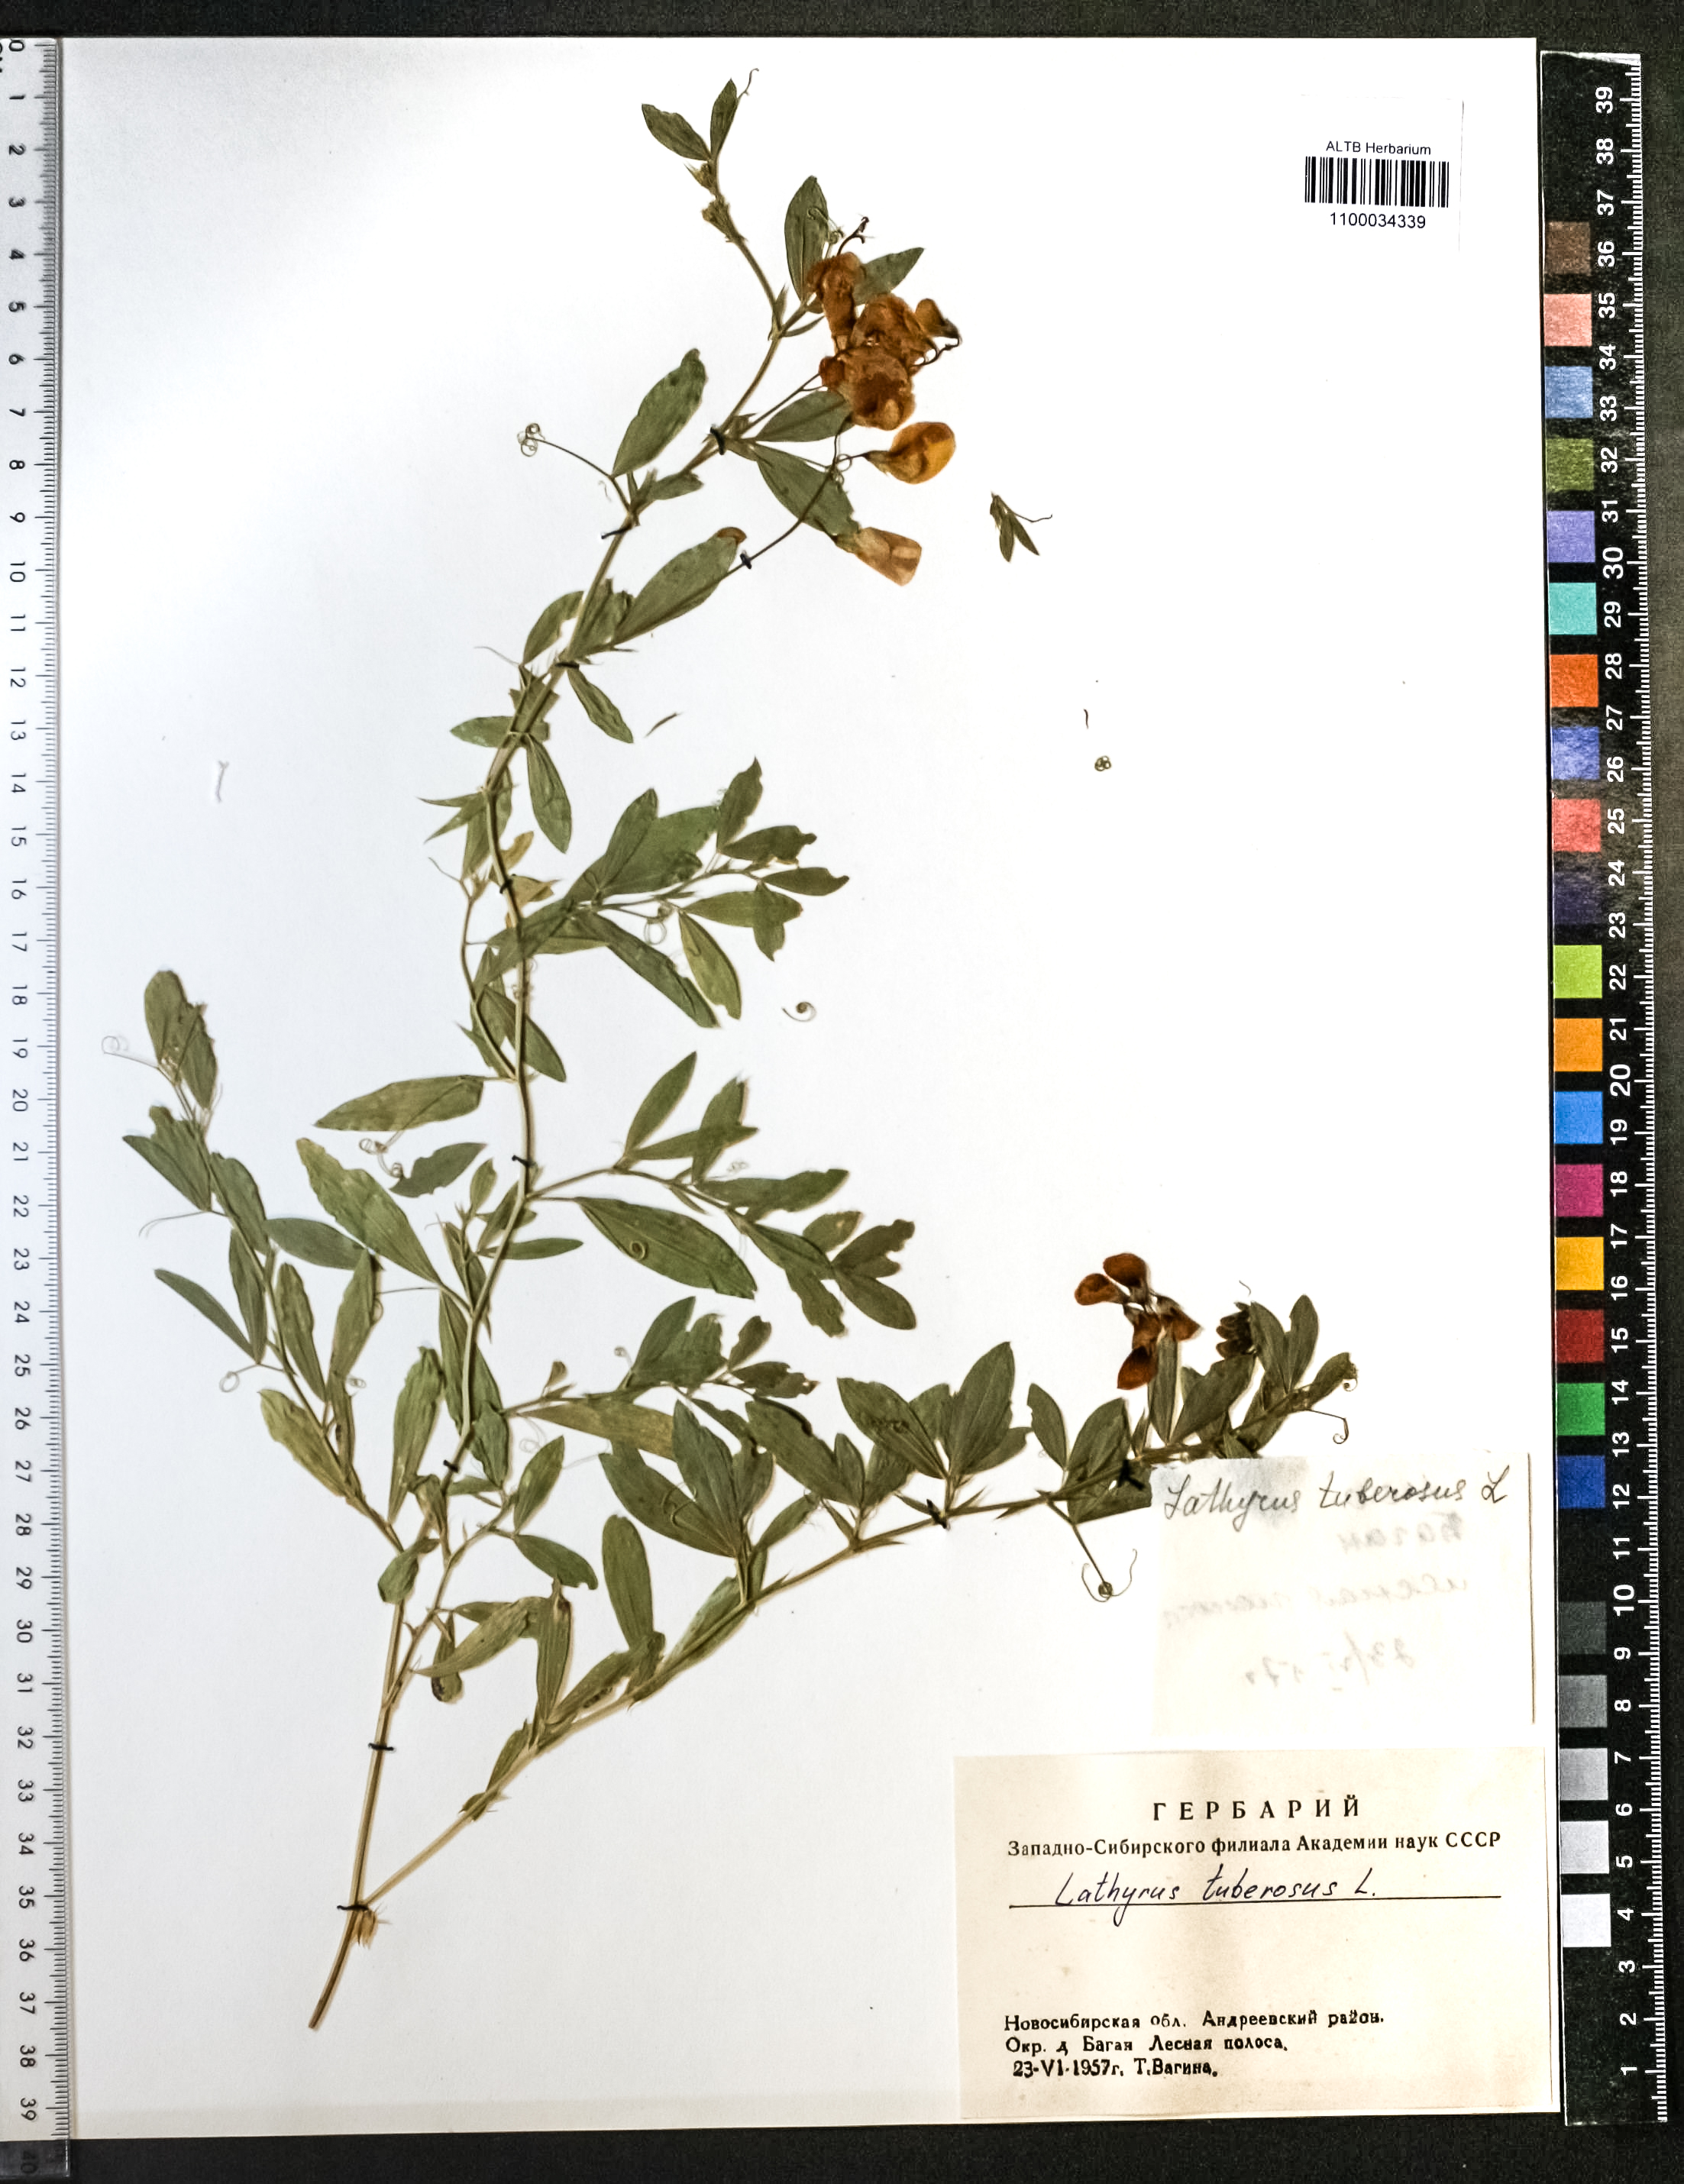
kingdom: Plantae
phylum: Tracheophyta
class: Magnoliopsida
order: Fabales
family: Fabaceae
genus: Lathyrus
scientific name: Lathyrus tuberosus
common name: Tuberous pea
